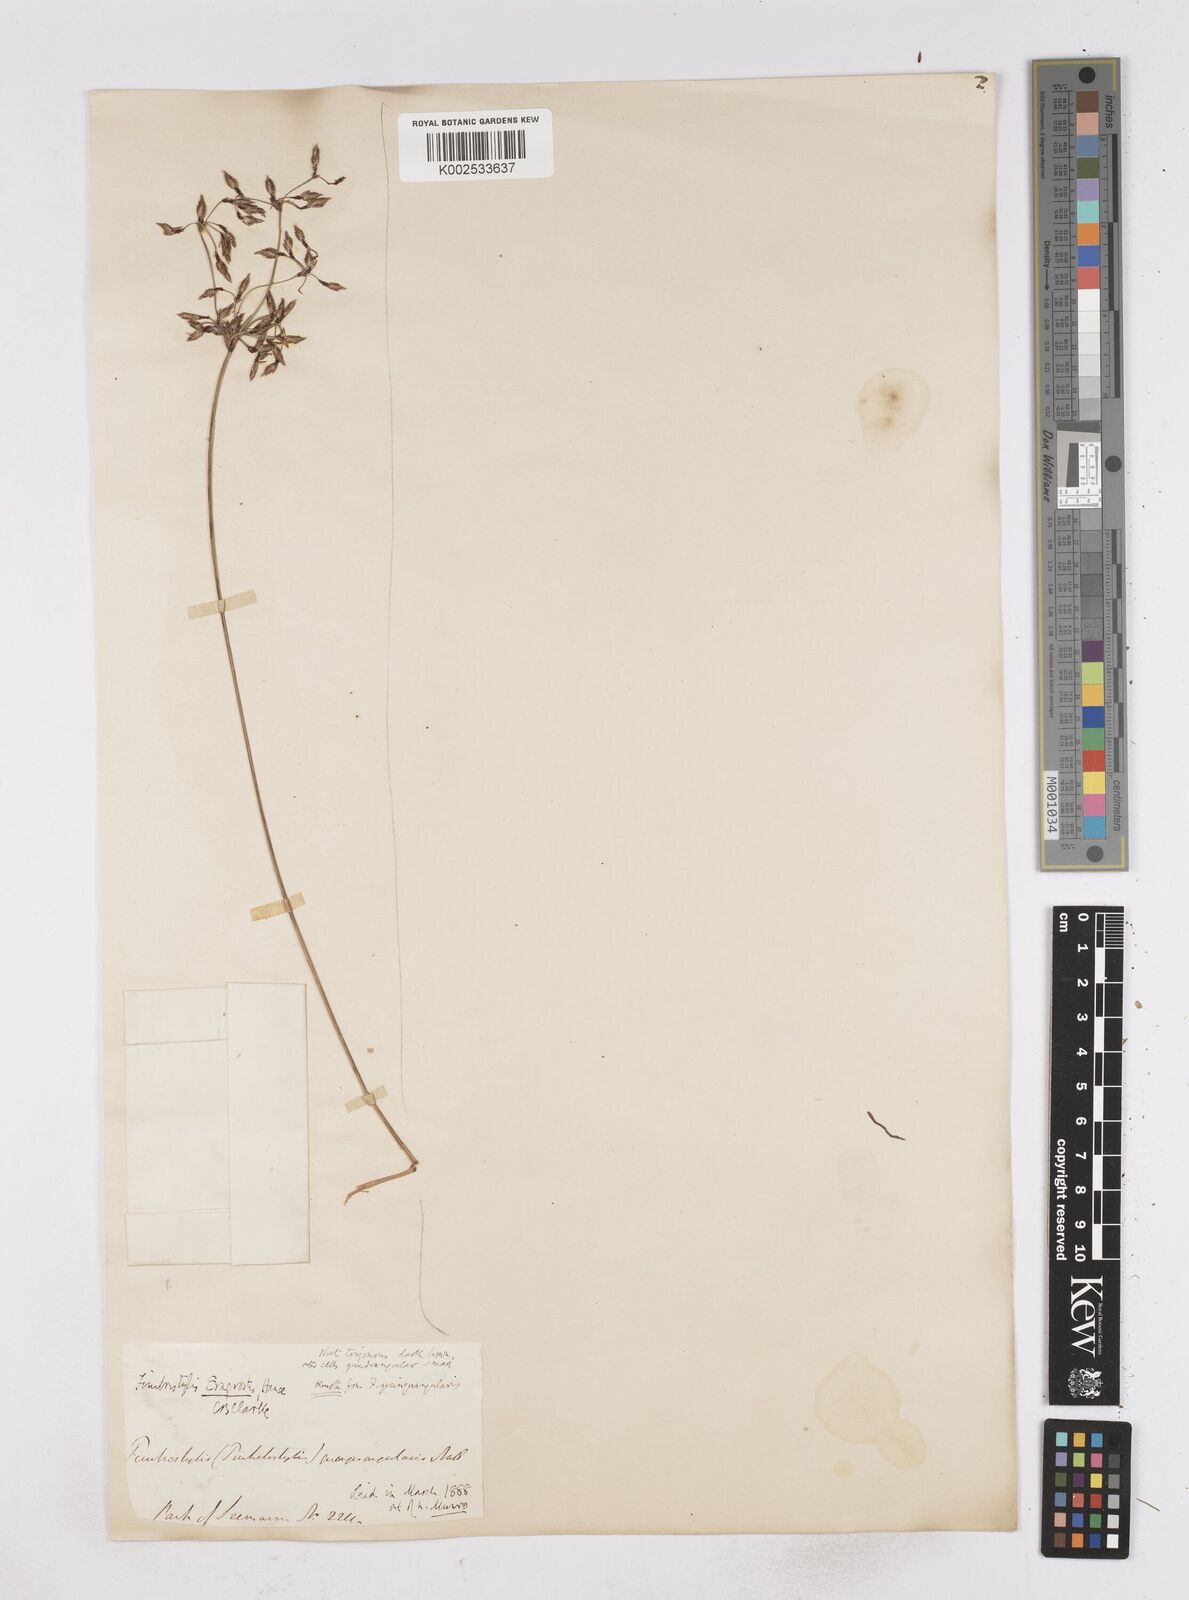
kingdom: Plantae
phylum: Tracheophyta
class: Liliopsida
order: Poales
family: Cyperaceae
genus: Fimbristylis
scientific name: Fimbristylis eragrostis
